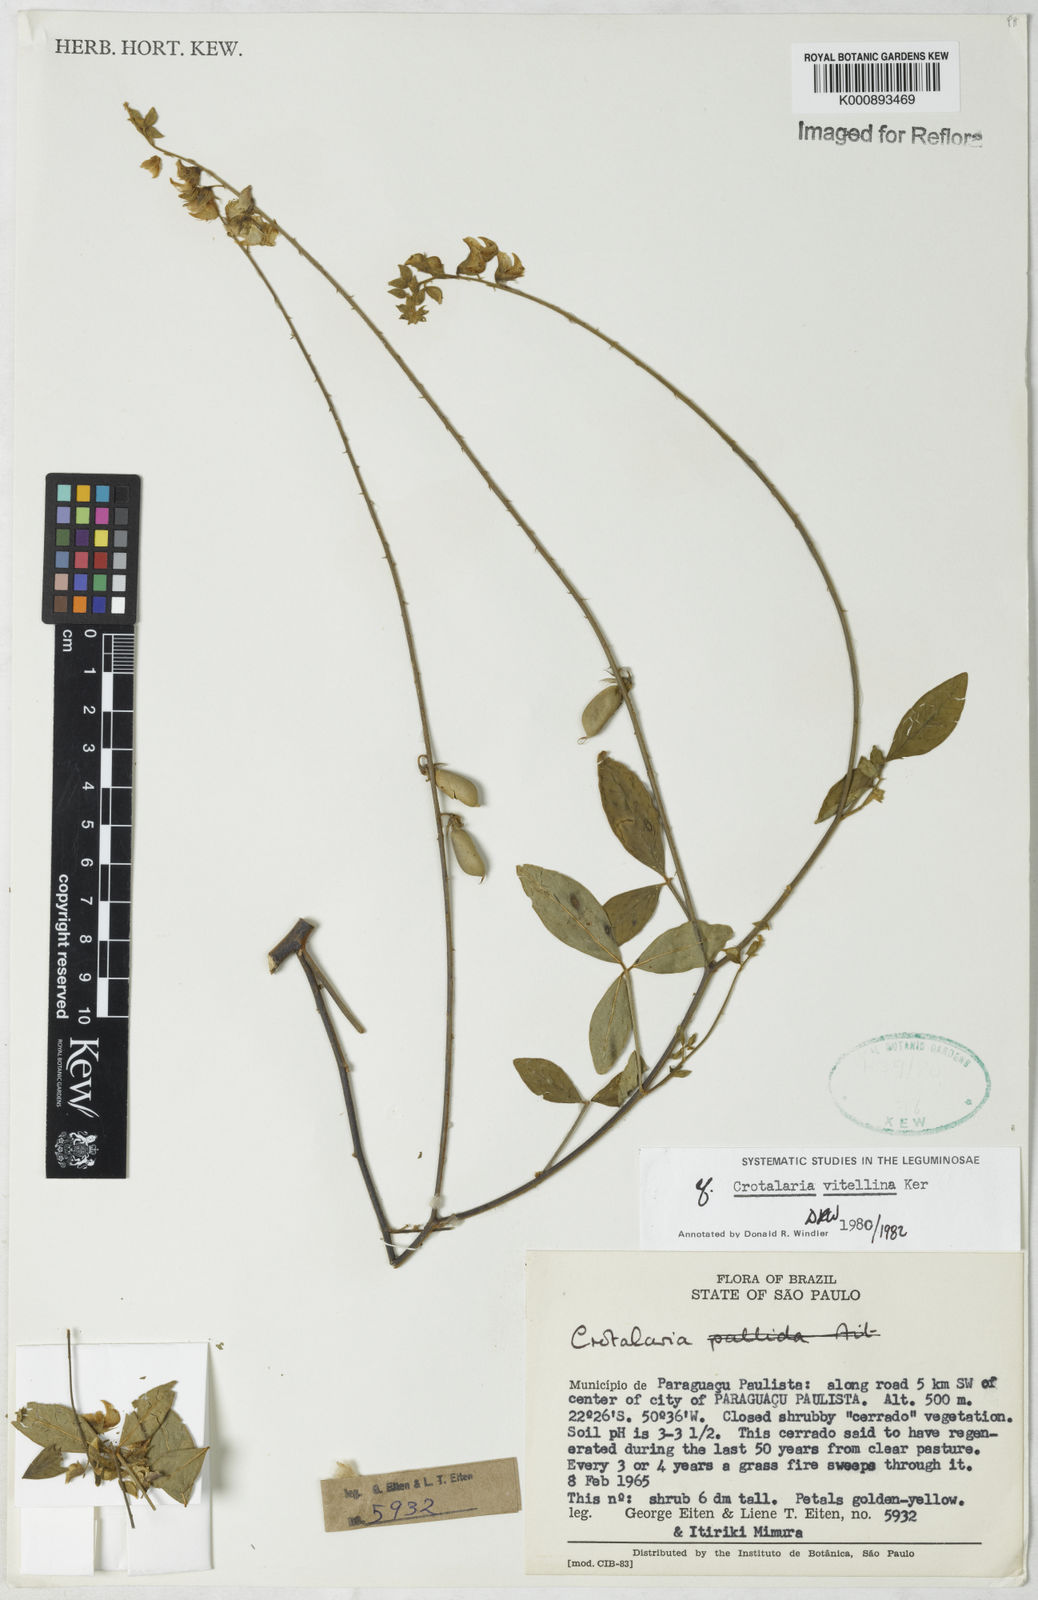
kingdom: Plantae
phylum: Tracheophyta
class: Magnoliopsida
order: Fabales
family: Fabaceae
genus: Crotalaria
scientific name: Crotalaria vitellina
